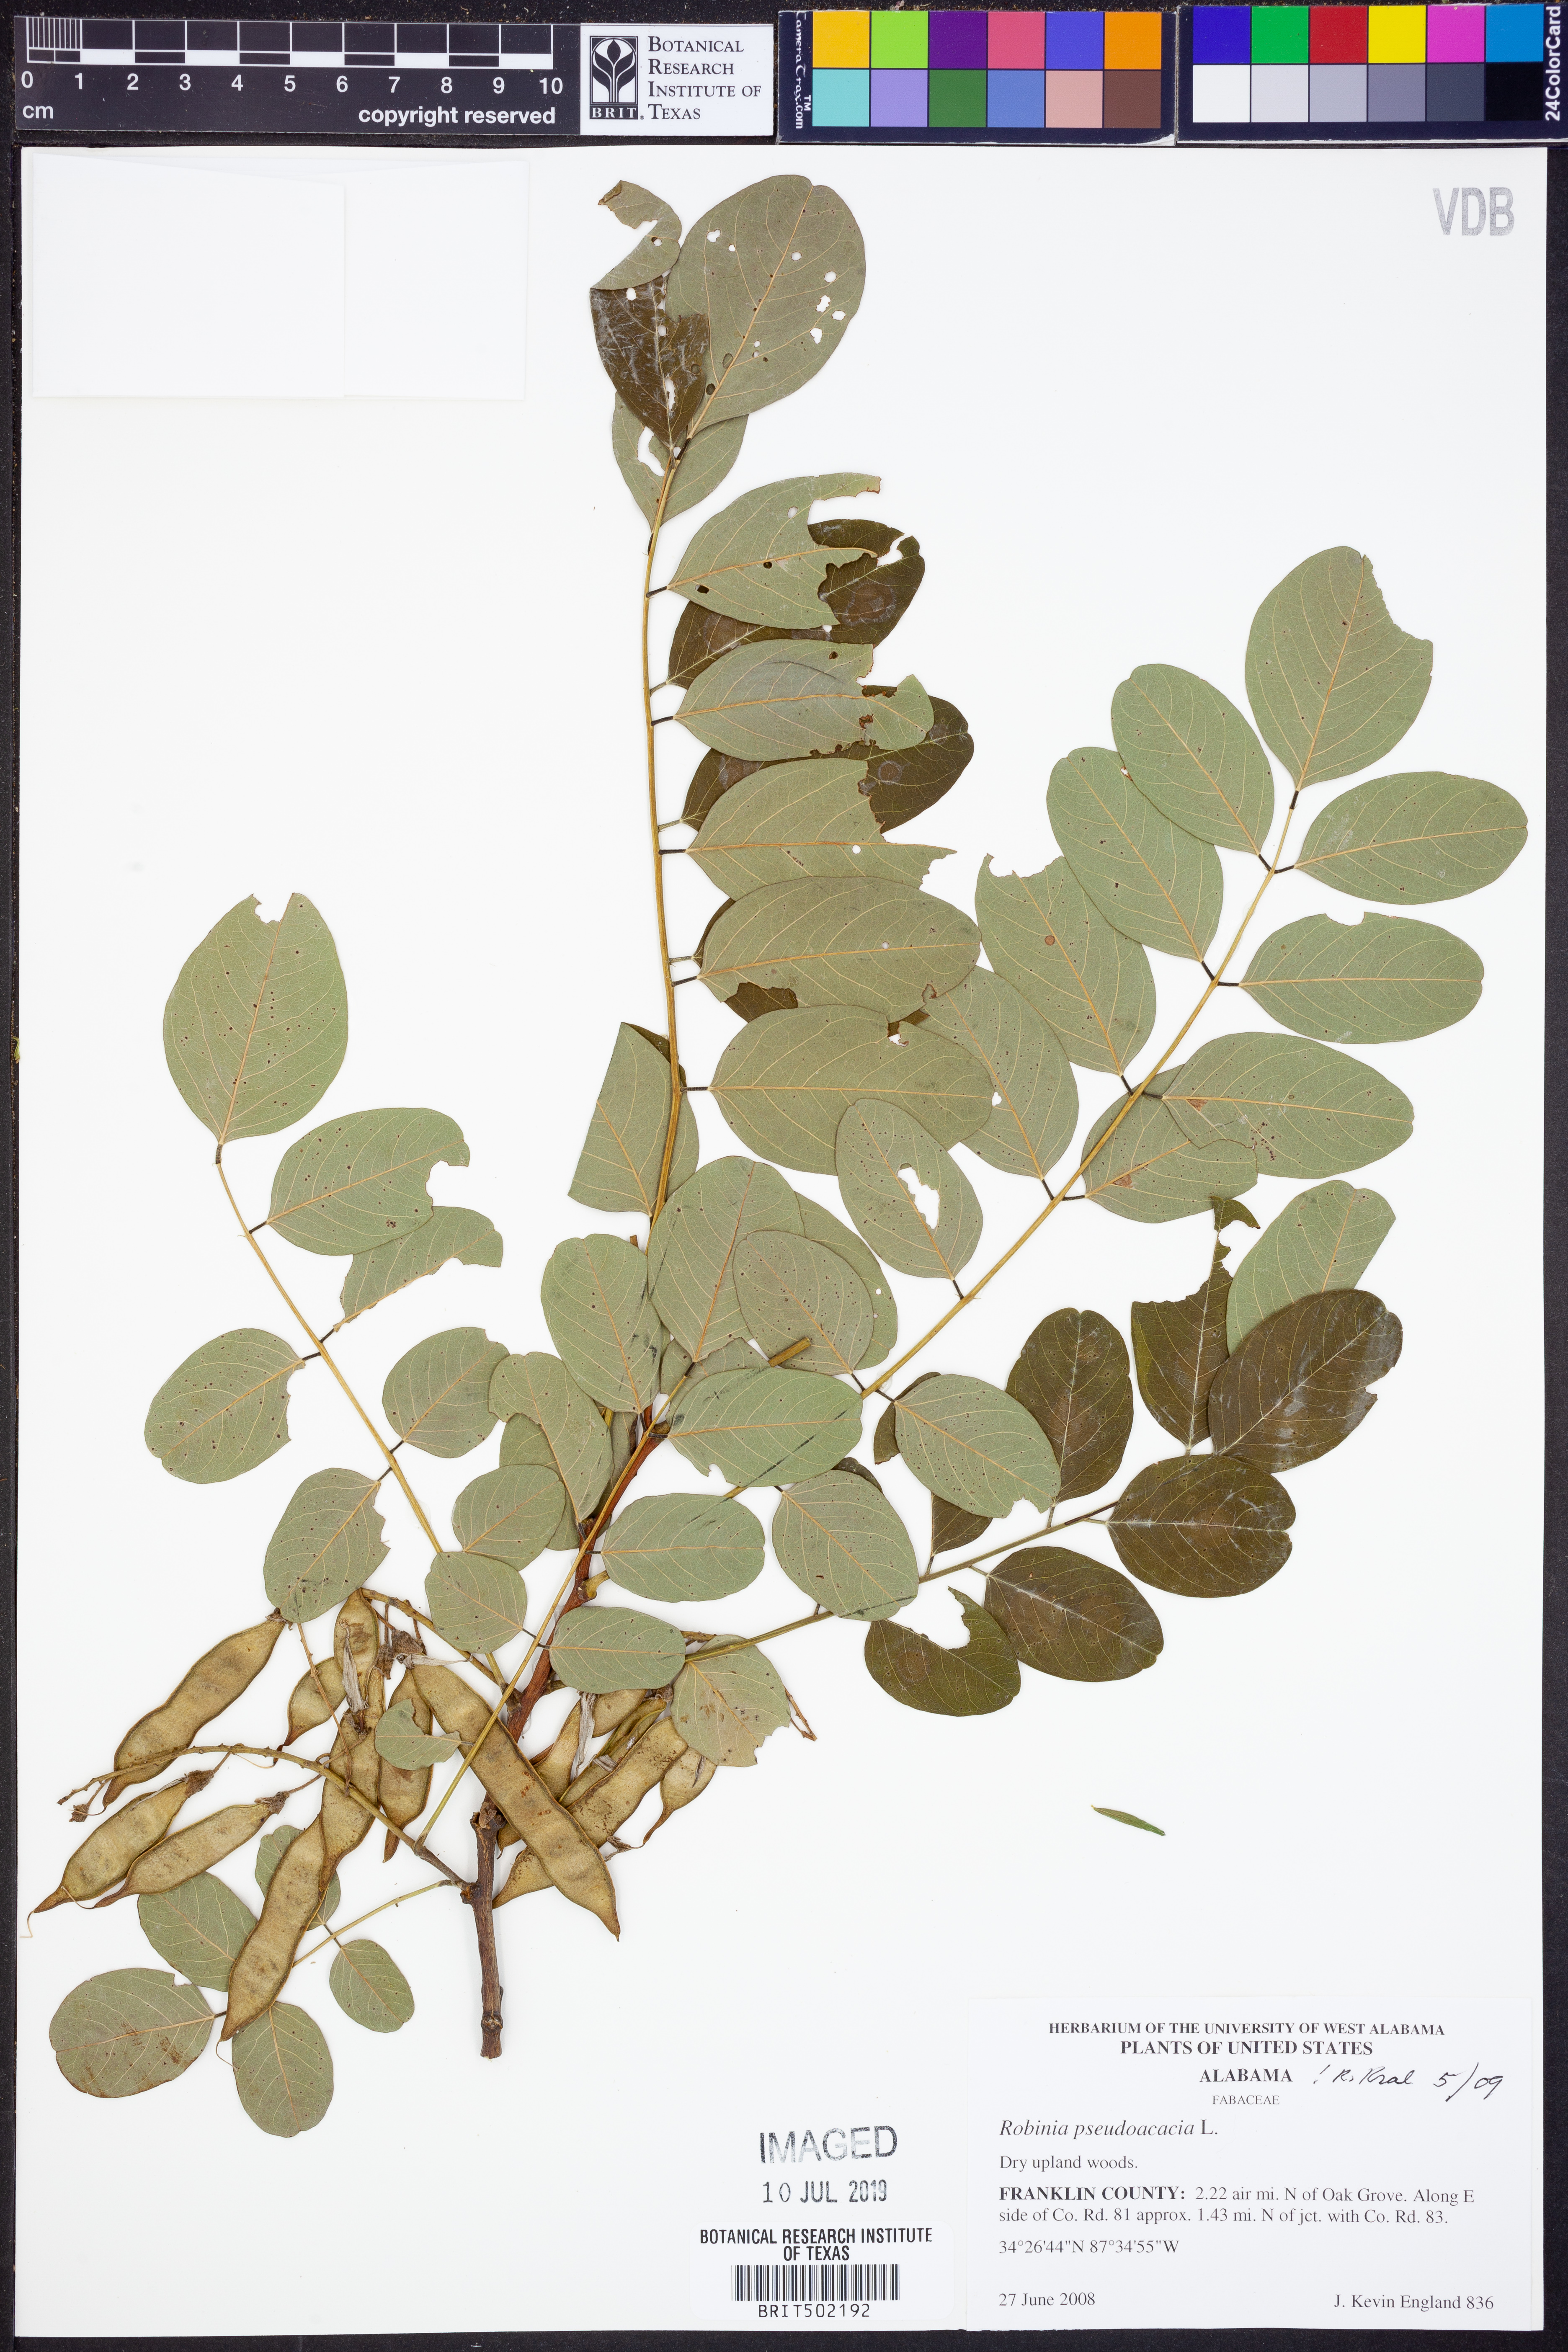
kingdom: Plantae
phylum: Tracheophyta
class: Magnoliopsida
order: Fabales
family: Fabaceae
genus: Robinia
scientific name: Robinia pseudoacacia
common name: Black locust
